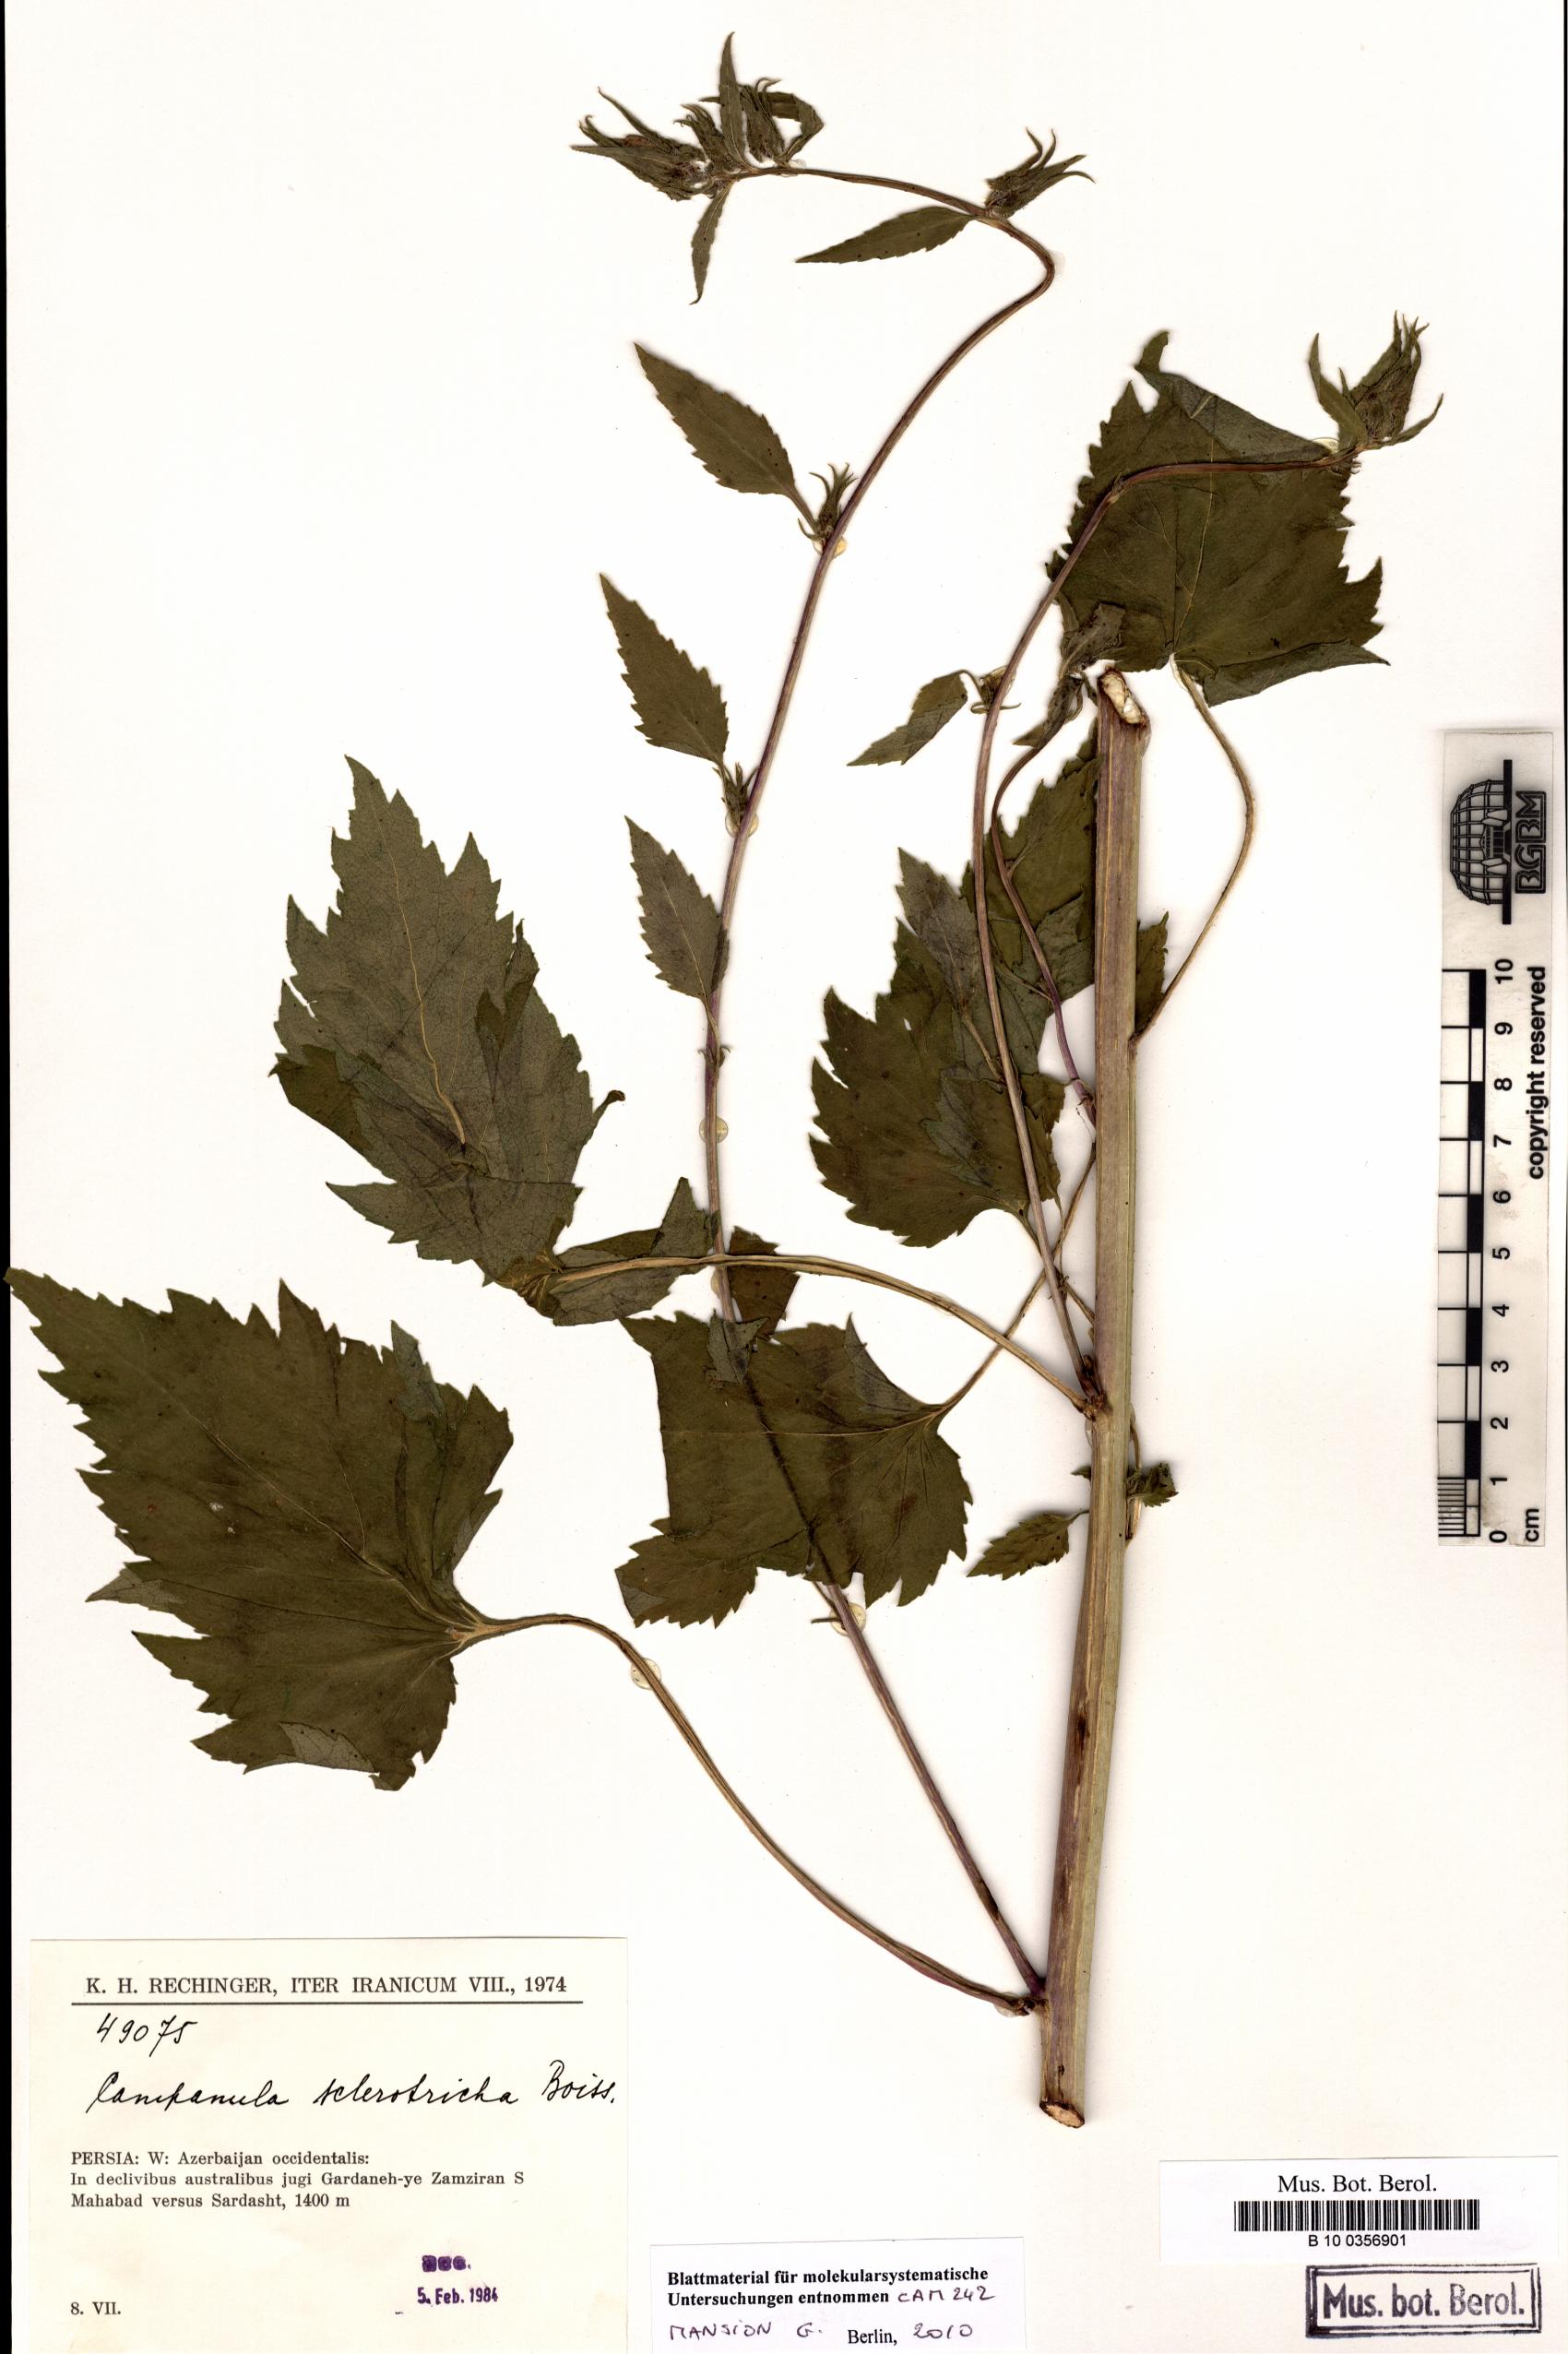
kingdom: Plantae
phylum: Tracheophyta
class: Magnoliopsida
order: Asterales
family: Campanulaceae
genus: Campanula
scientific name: Campanula sclerotricha
